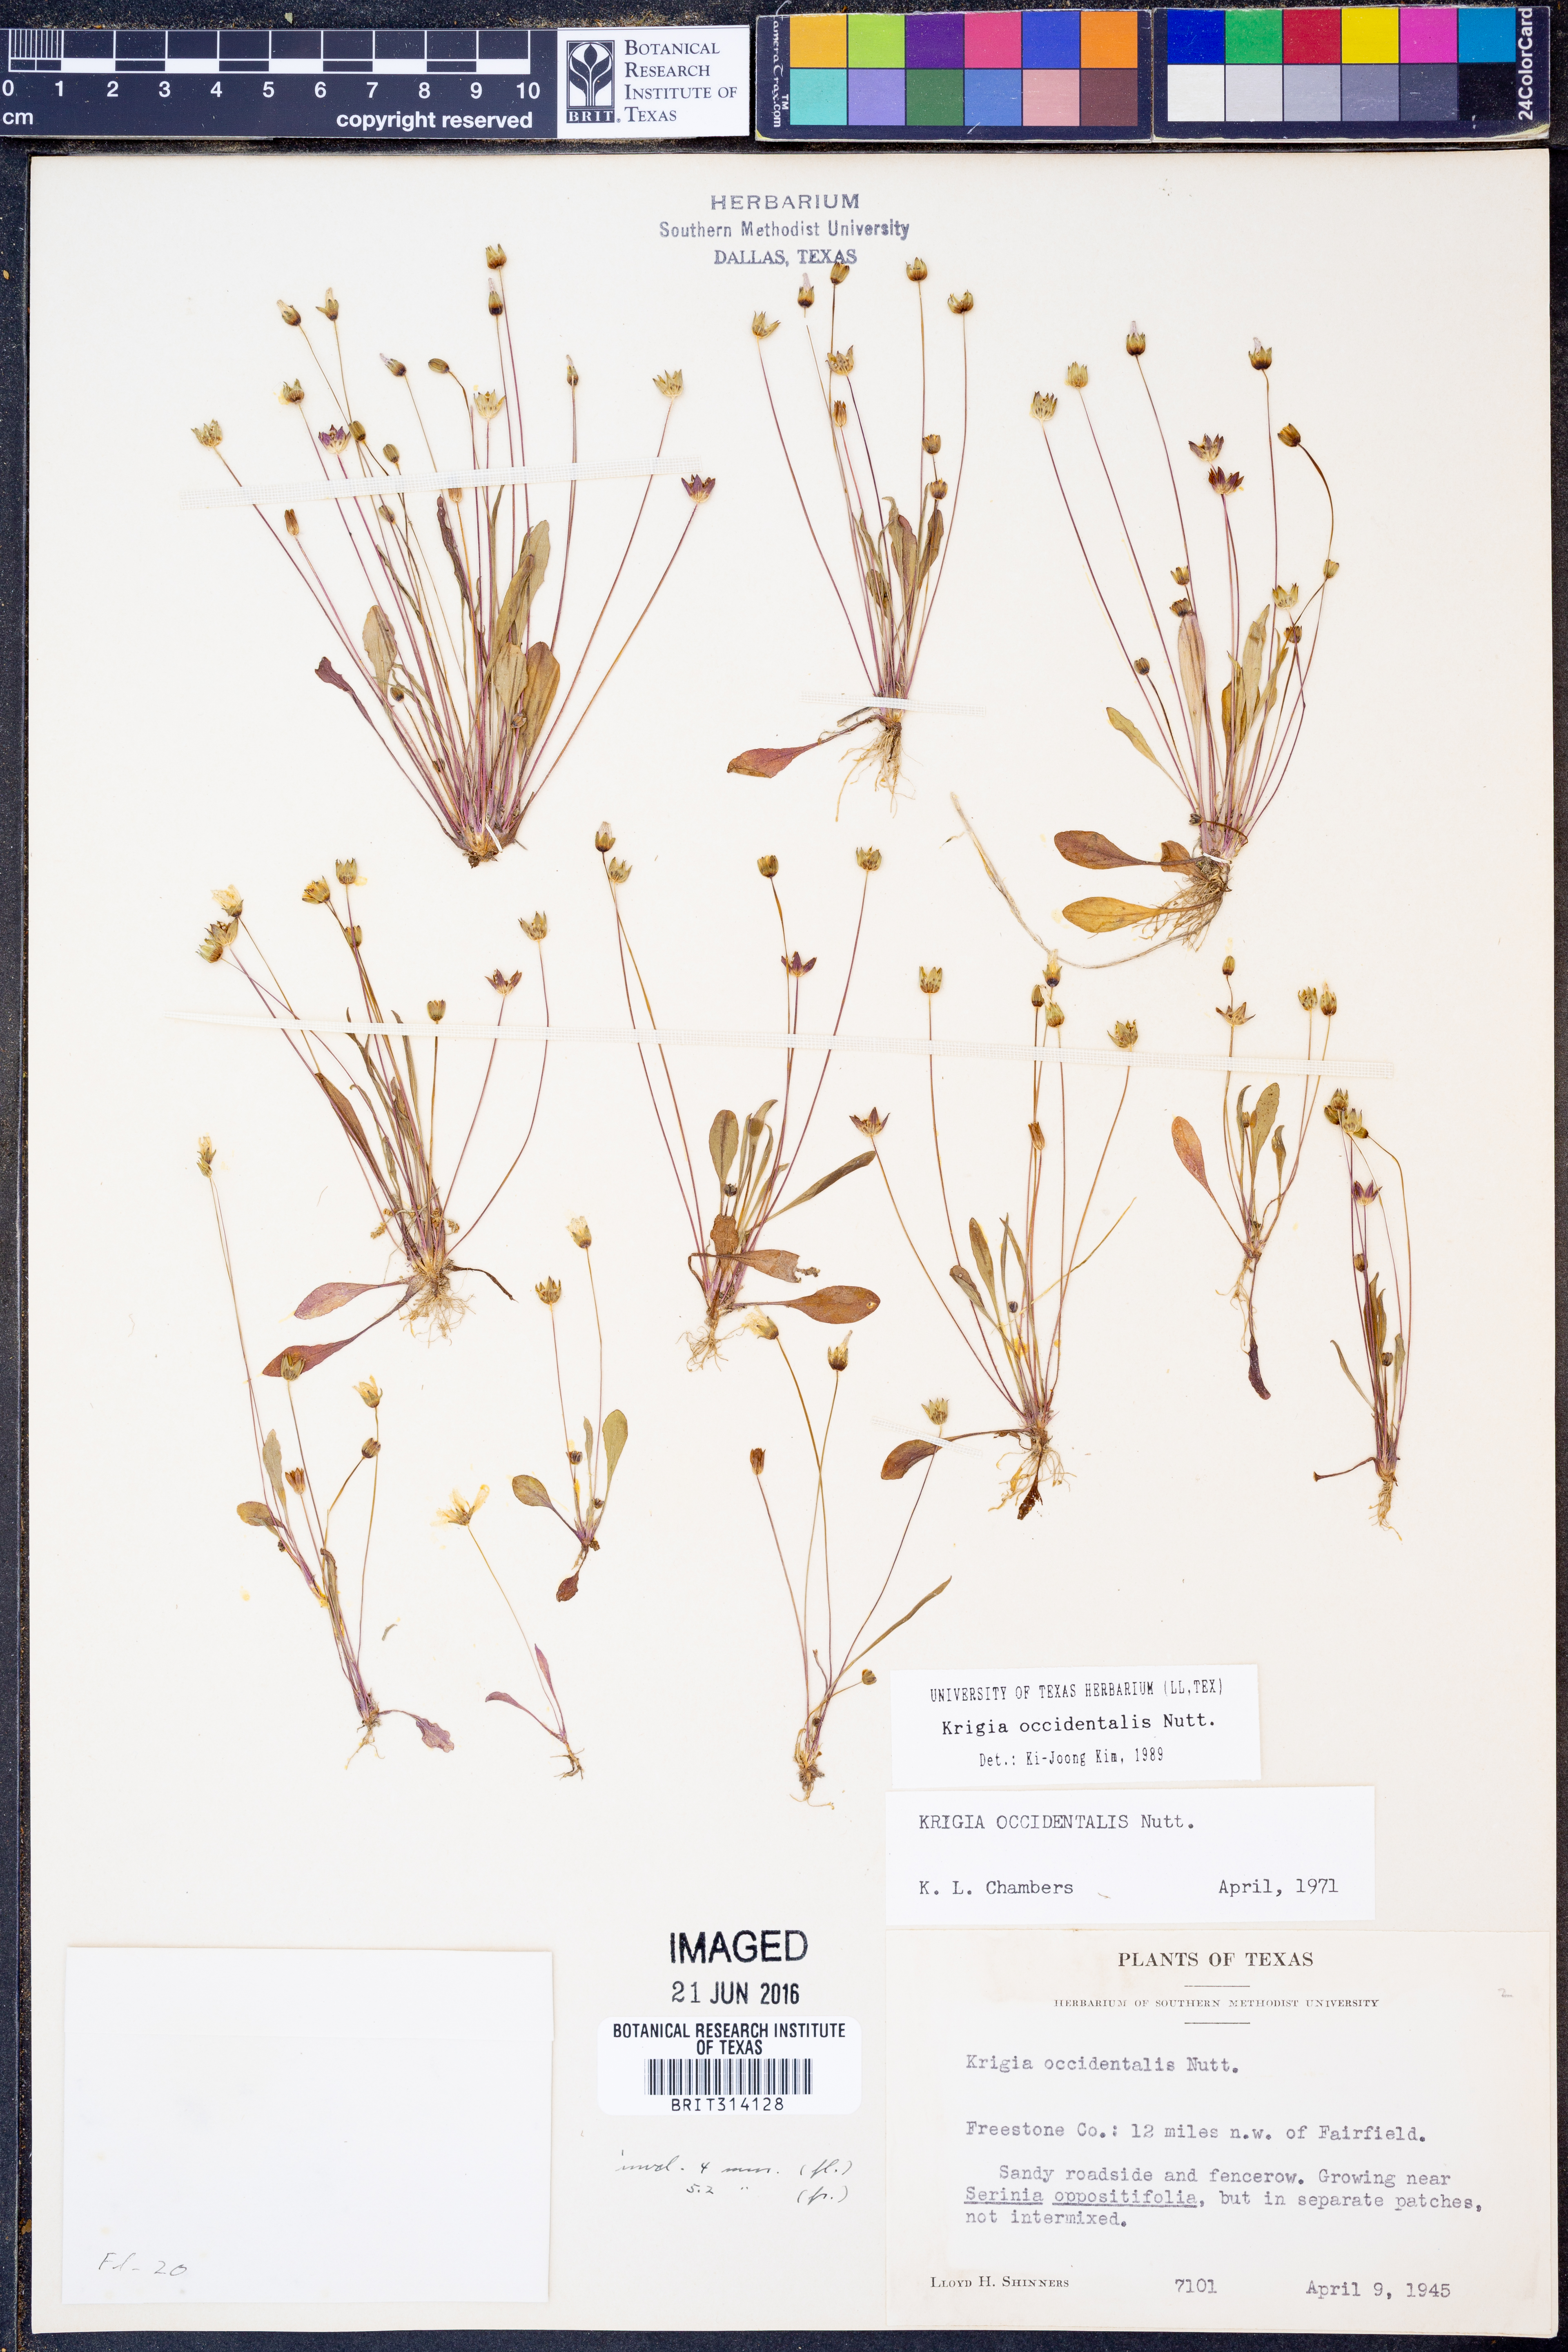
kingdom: Plantae
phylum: Tracheophyta
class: Magnoliopsida
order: Asterales
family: Asteraceae
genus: Krigia
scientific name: Krigia occidentalis
